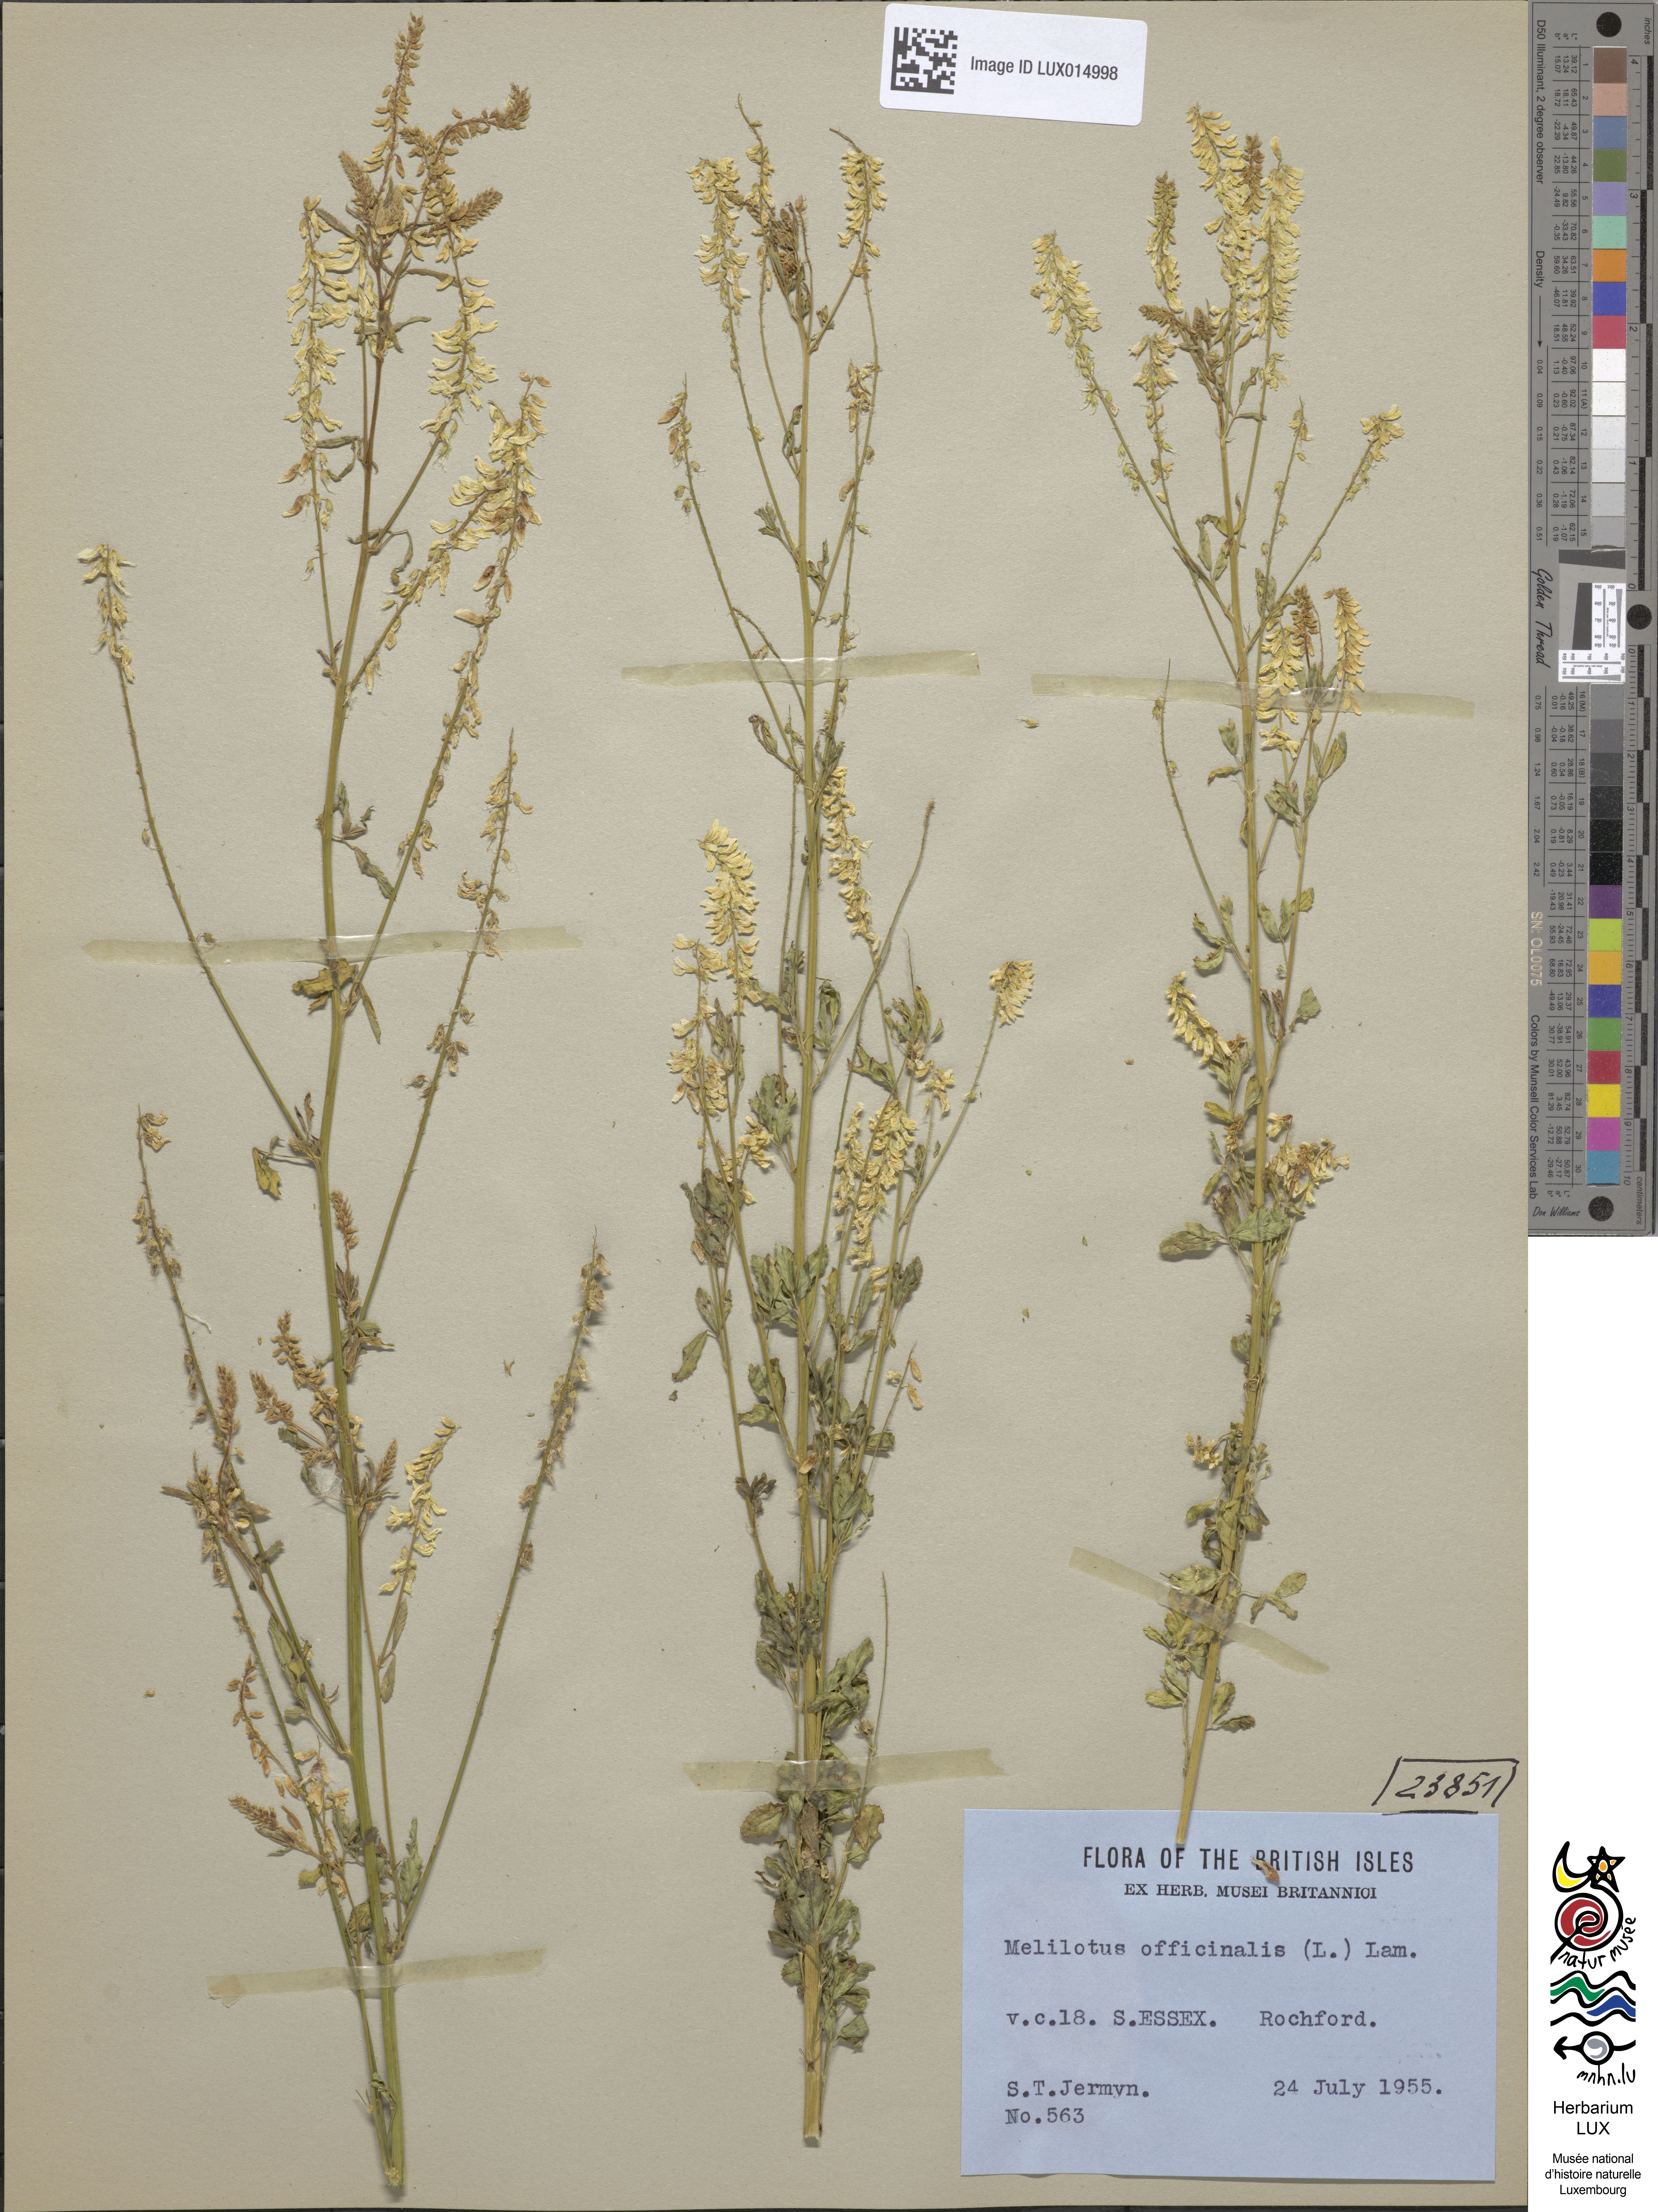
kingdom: Plantae
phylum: Tracheophyta
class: Magnoliopsida
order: Fabales
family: Fabaceae
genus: Melilotus
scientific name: Melilotus officinalis
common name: Sweetclover
